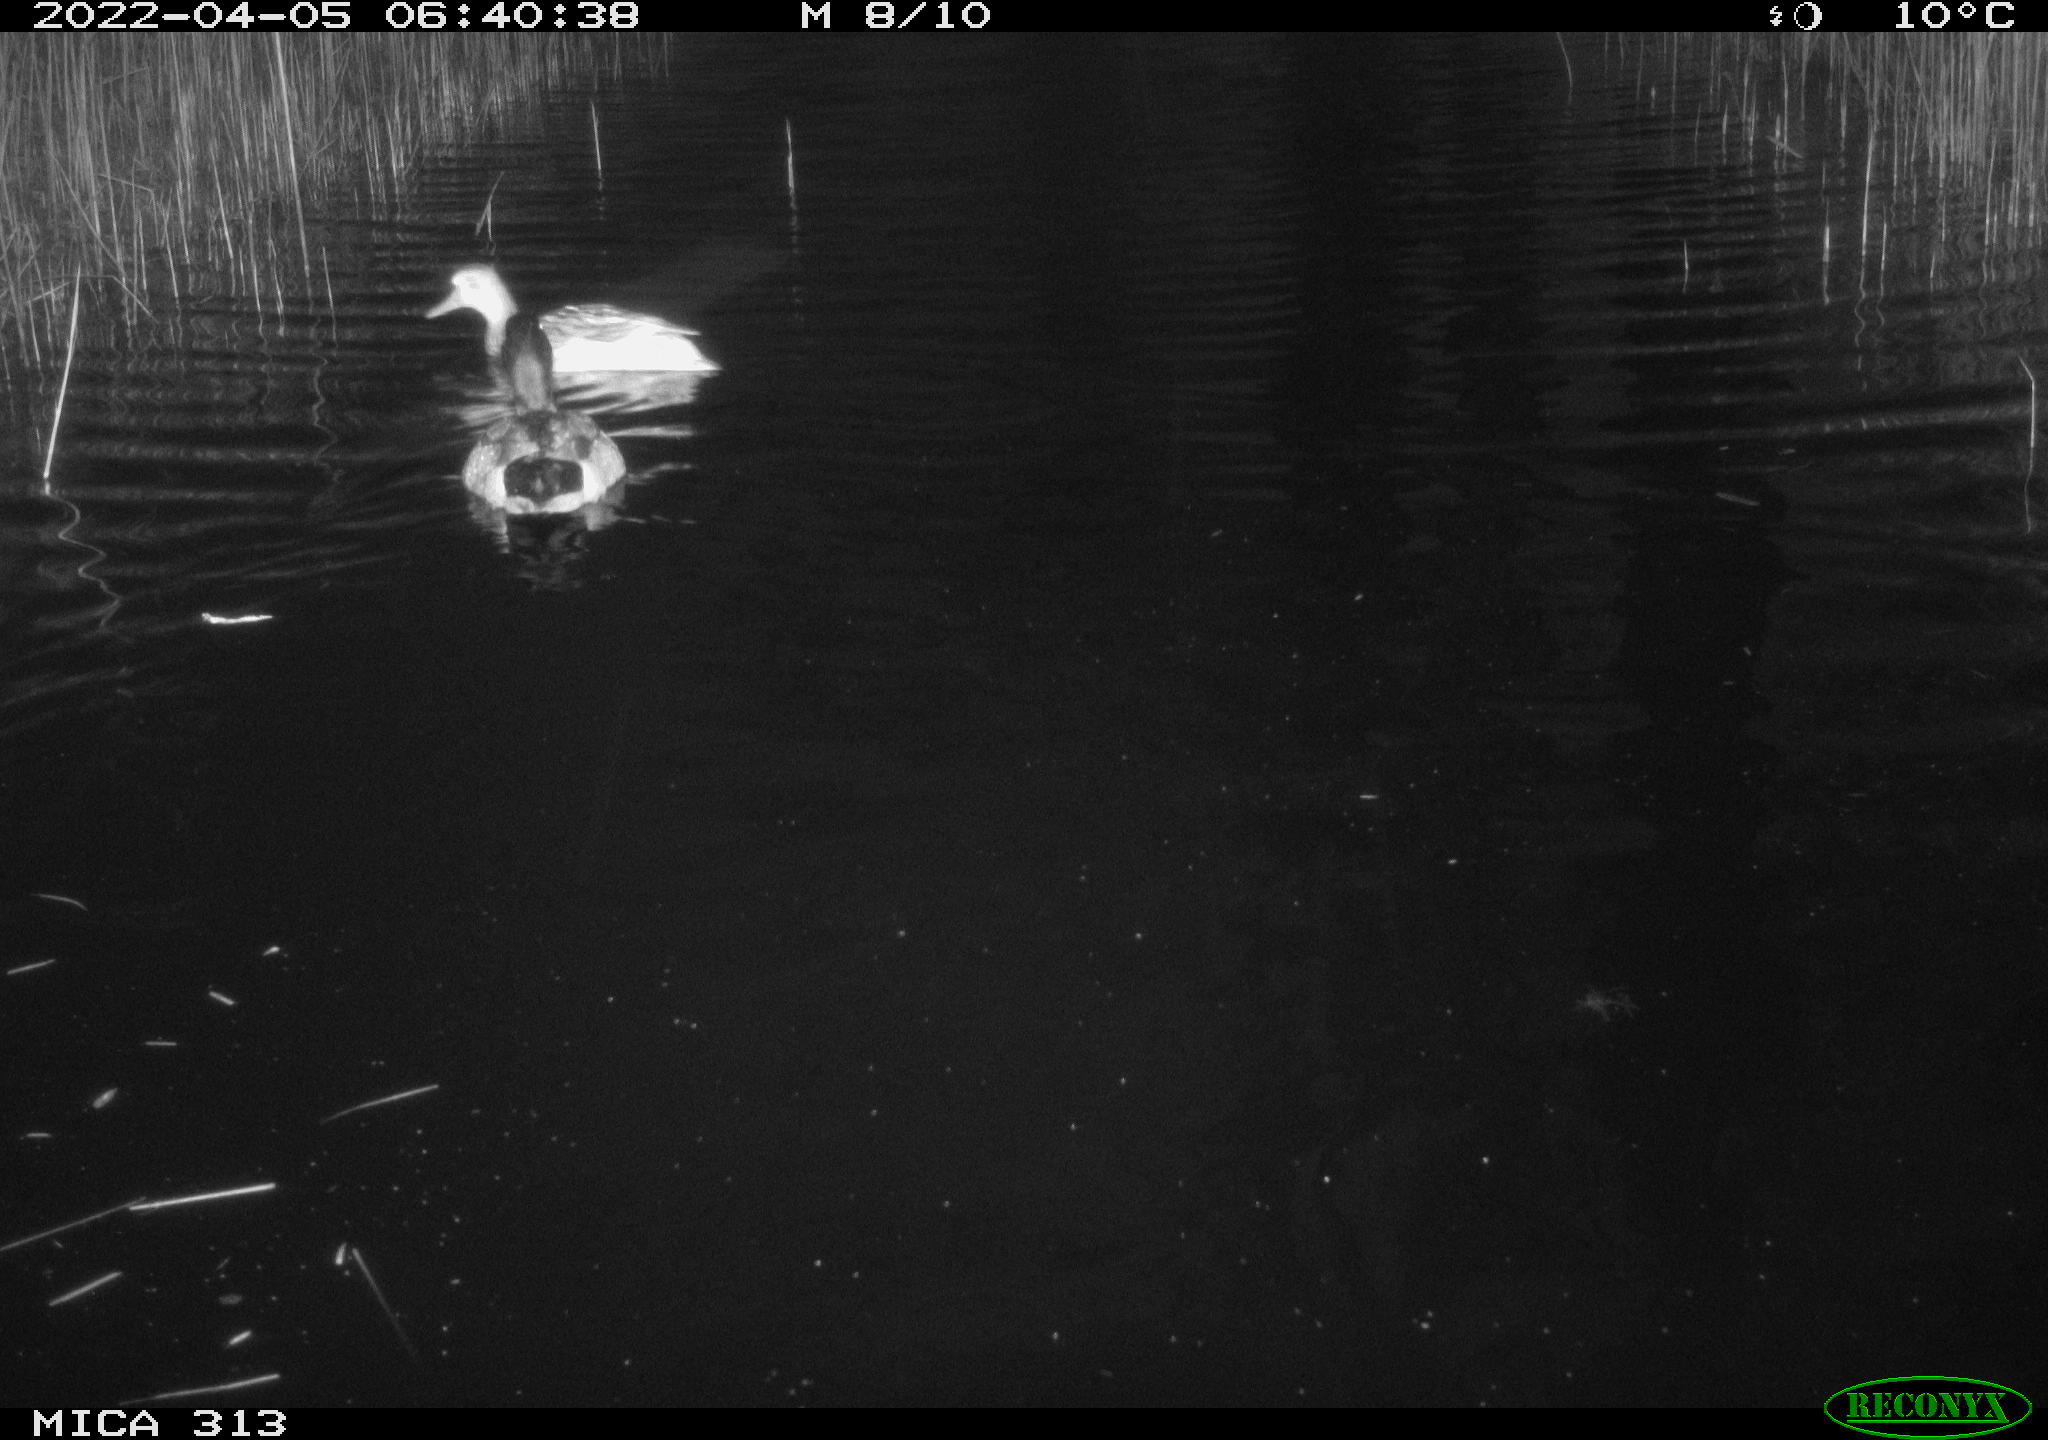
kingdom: Animalia
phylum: Chordata
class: Aves
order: Anseriformes
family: Anatidae
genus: Anas
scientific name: Anas platyrhynchos
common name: Mallard
